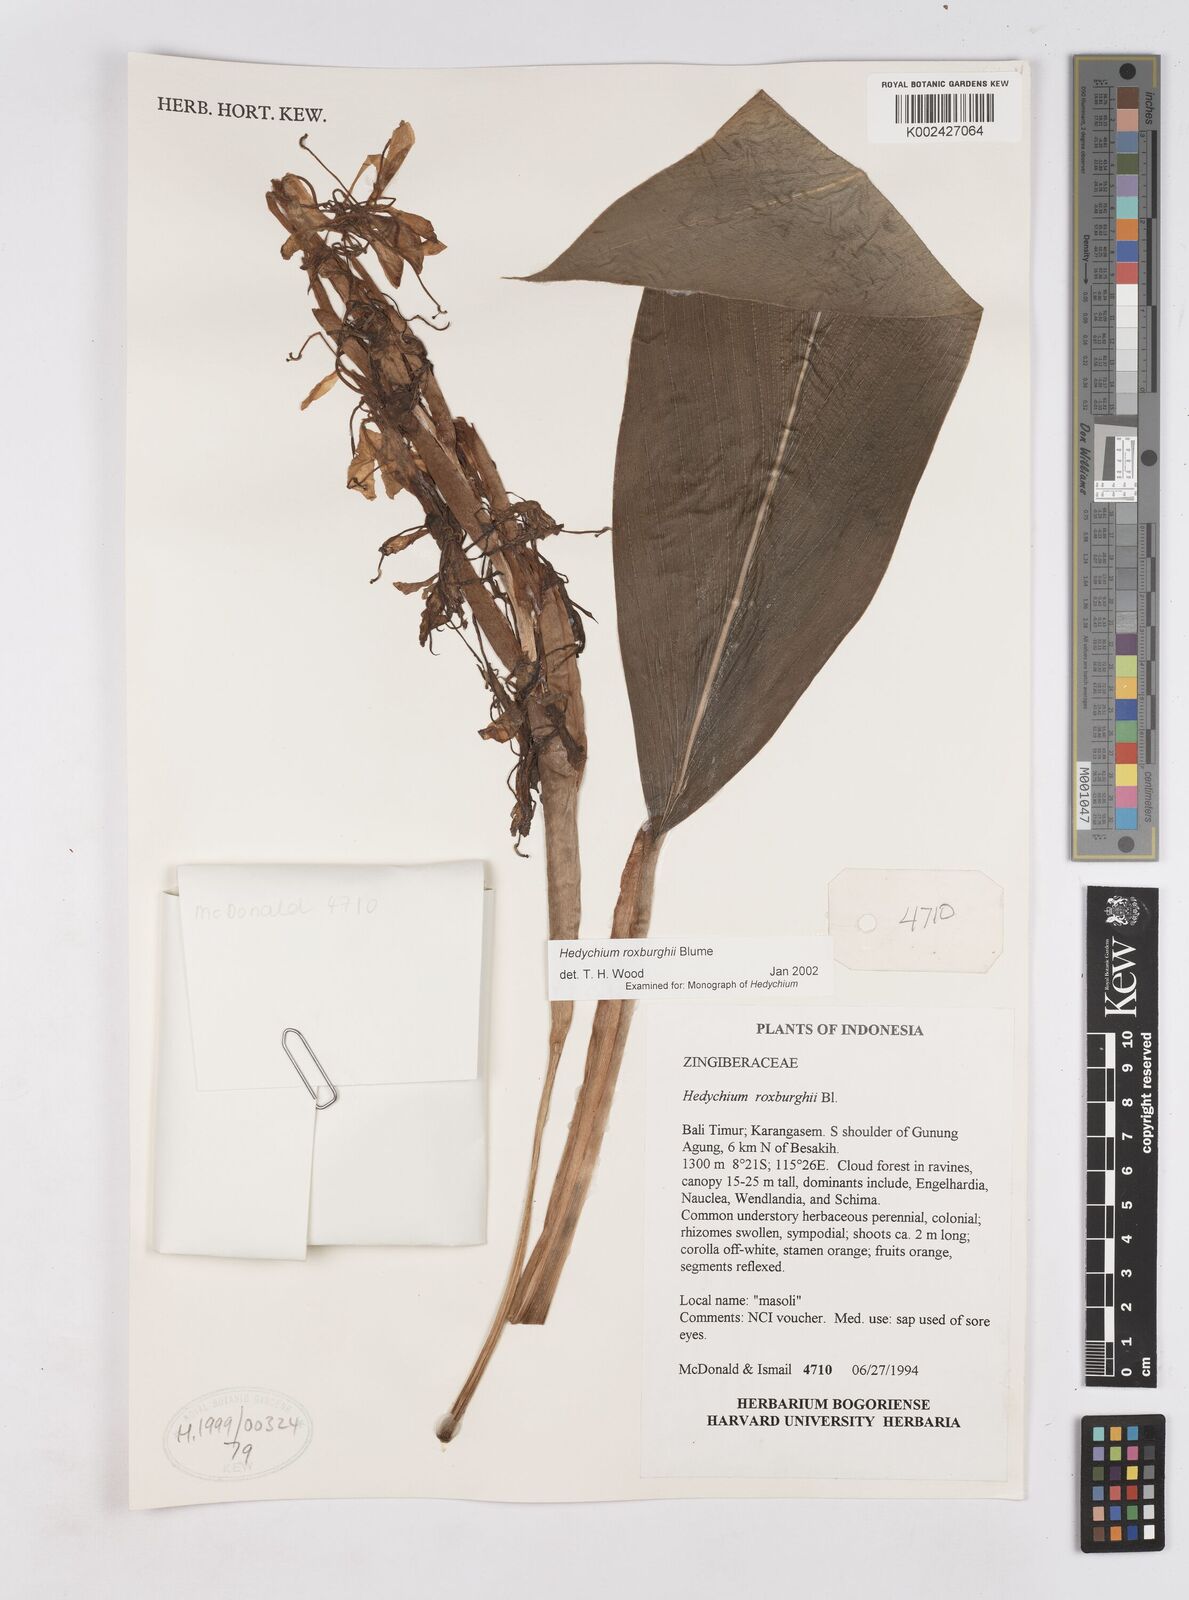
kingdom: Plantae
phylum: Tracheophyta
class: Liliopsida
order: Zingiberales
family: Zingiberaceae
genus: Hedychium
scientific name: Hedychium roxburghii
